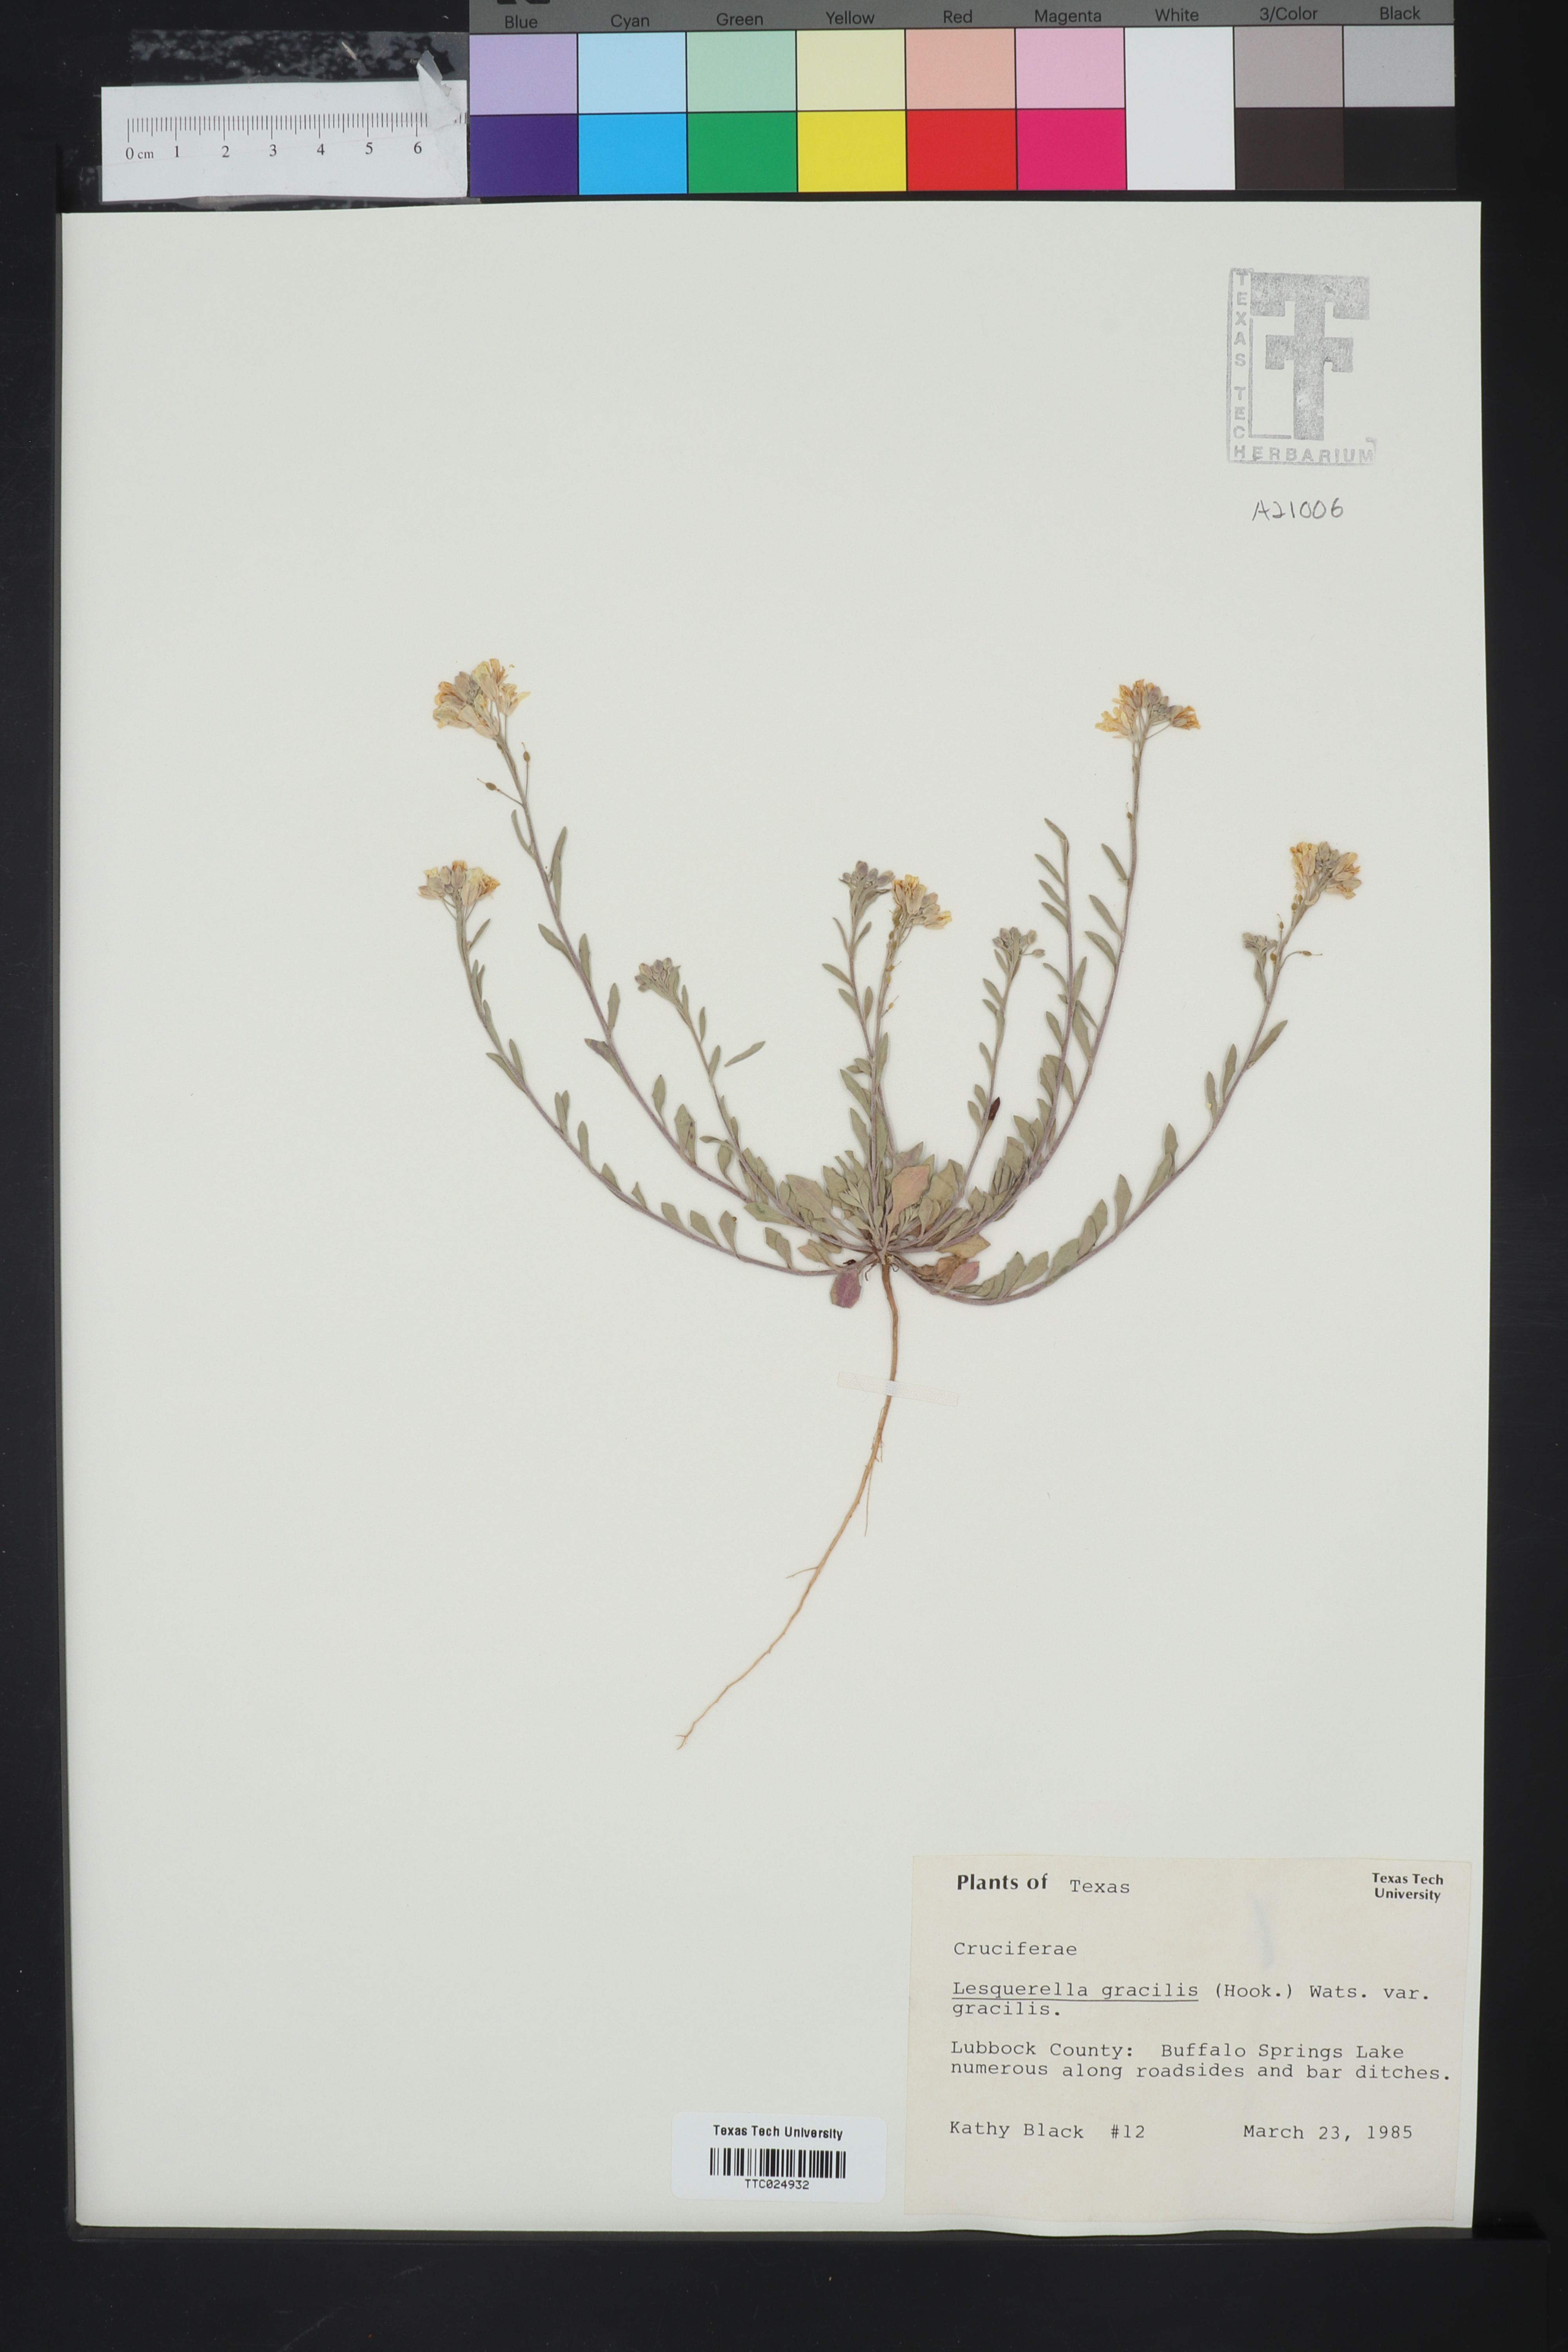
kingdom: Plantae
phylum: Tracheophyta
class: Magnoliopsida
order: Brassicales
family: Brassicaceae
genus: Physaria
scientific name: Physaria gracilis
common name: Spreading bladderpod
